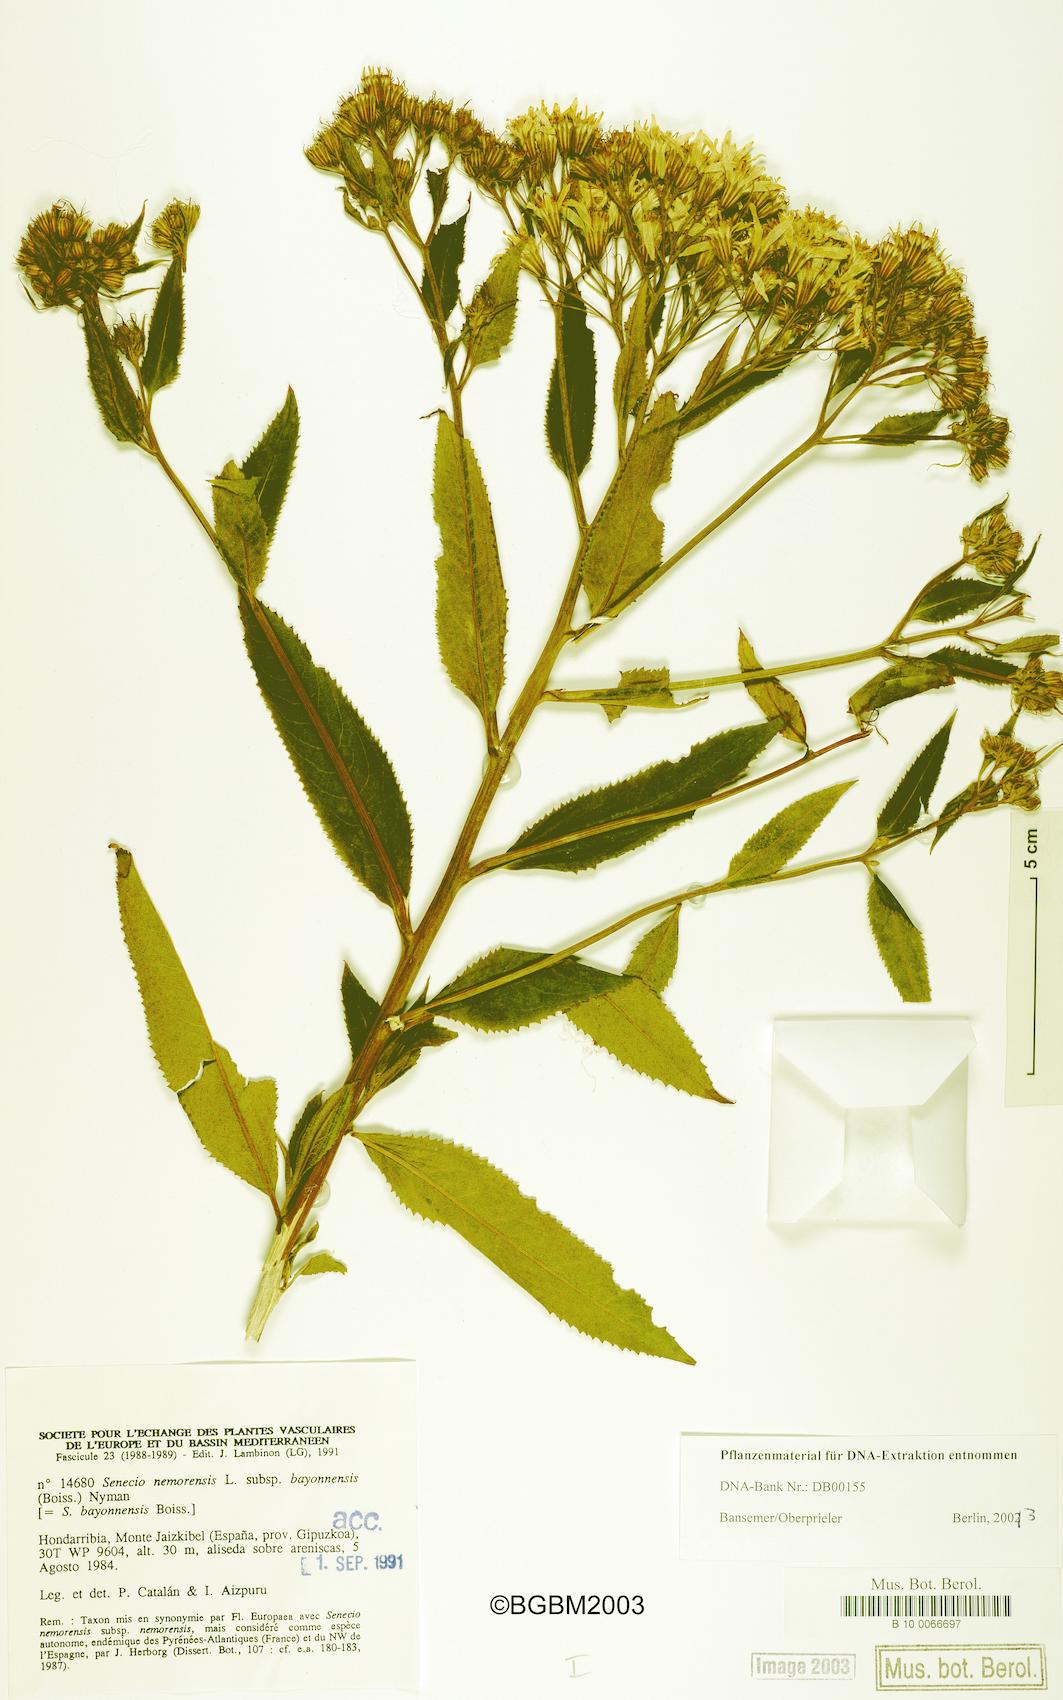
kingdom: Plantae
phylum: Tracheophyta
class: Magnoliopsida
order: Asterales
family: Asteraceae
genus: Senecio
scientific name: Senecio bayonnensis
